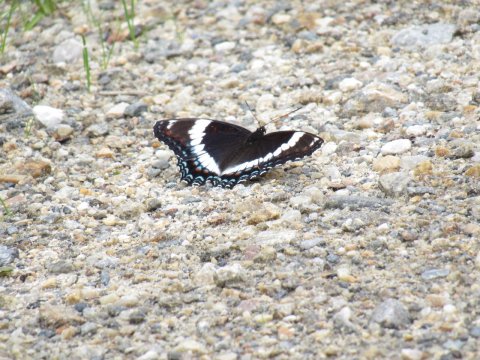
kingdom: Animalia
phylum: Arthropoda
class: Insecta
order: Lepidoptera
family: Nymphalidae
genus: Limenitis
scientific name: Limenitis arthemis
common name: Red-spotted Admiral
